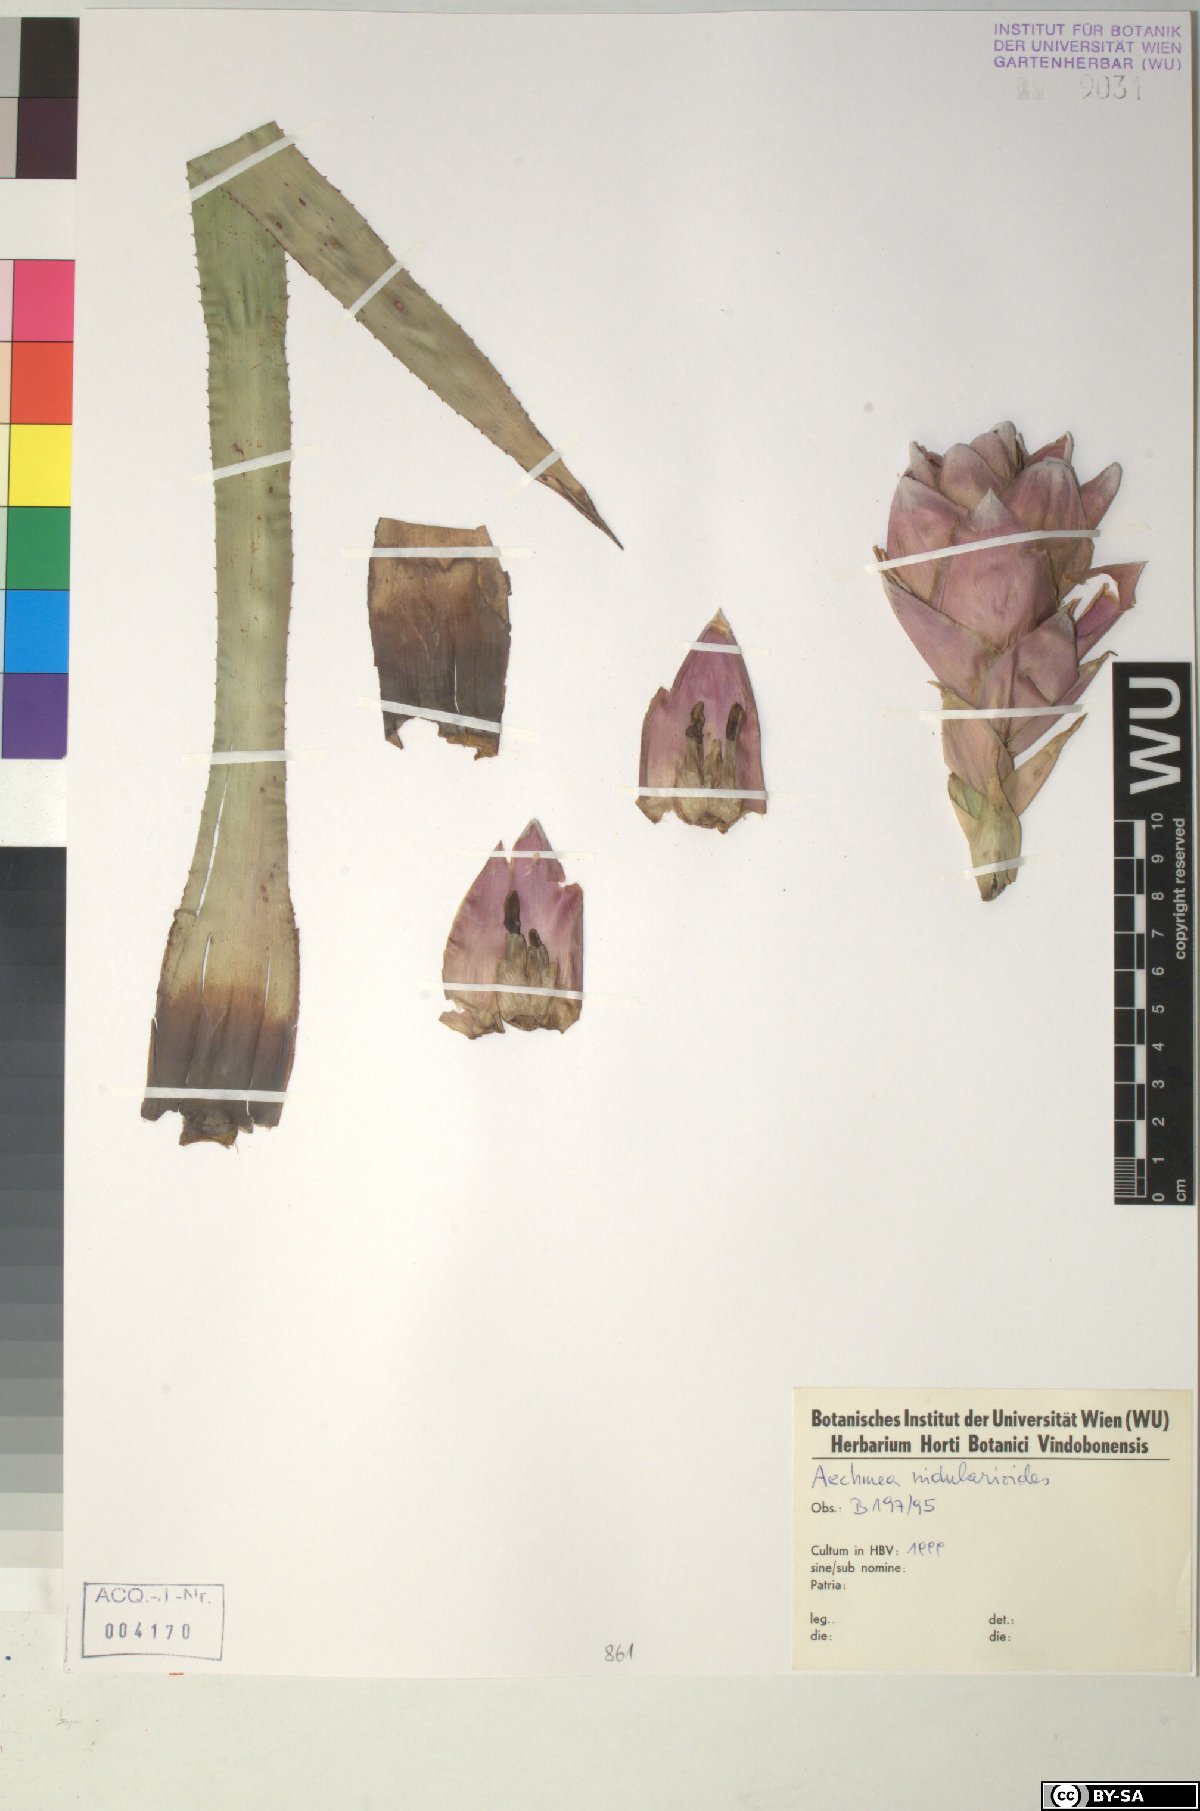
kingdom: Plantae
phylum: Tracheophyta
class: Liliopsida
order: Poales
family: Bromeliaceae
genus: Aechmea
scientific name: Aechmea nidularioides
